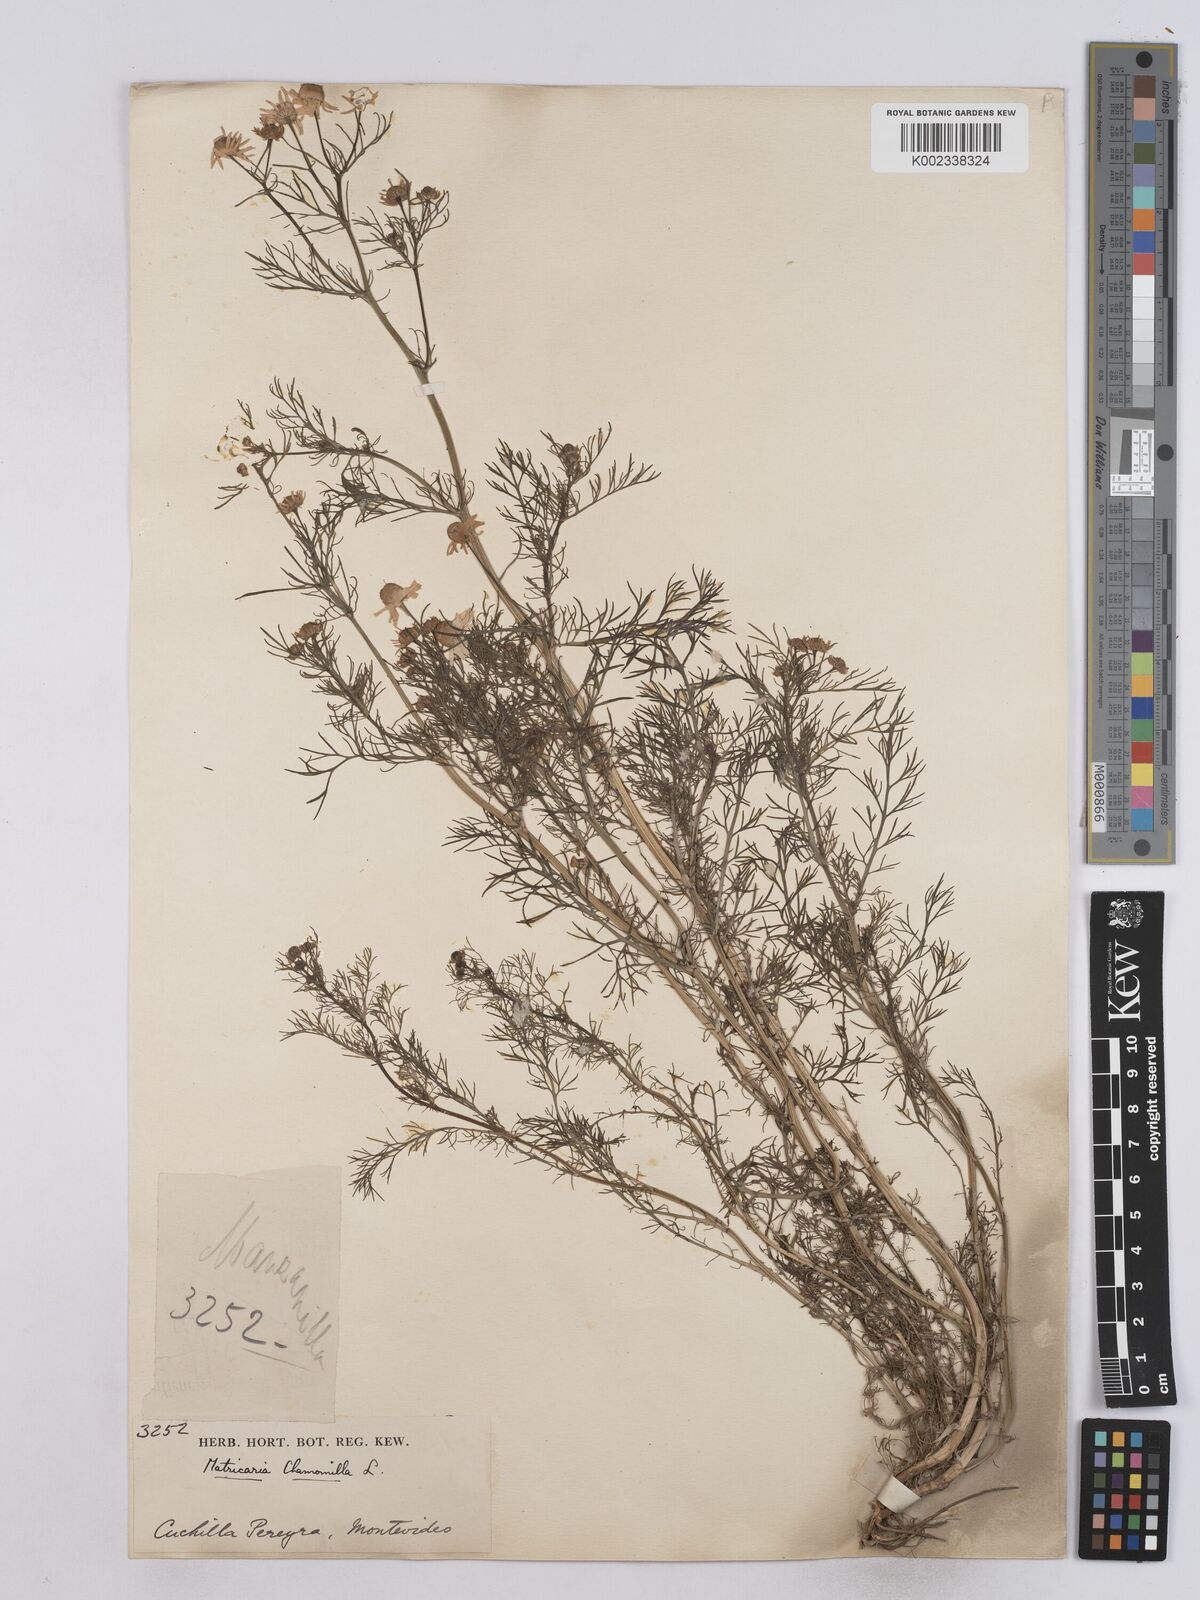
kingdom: Plantae
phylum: Tracheophyta
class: Magnoliopsida
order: Asterales
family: Asteraceae
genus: Matricaria
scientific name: Matricaria chamomilla
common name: Scented mayweed
